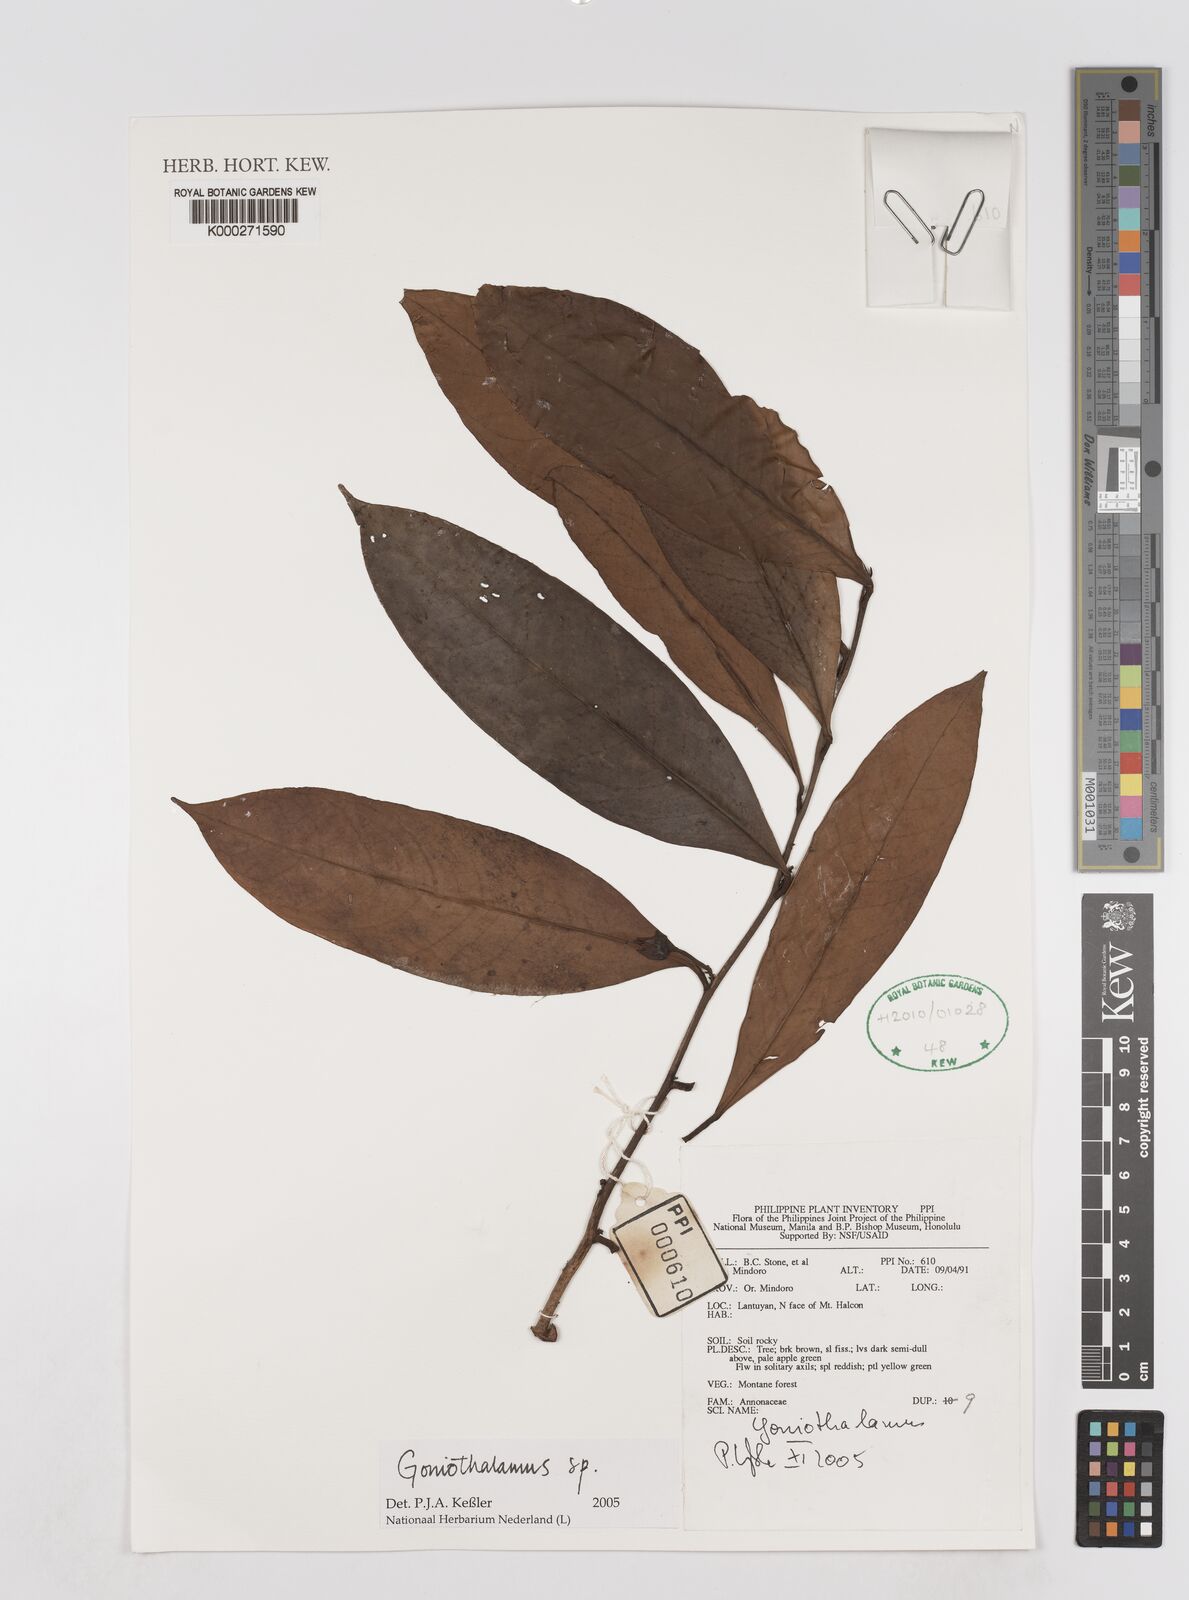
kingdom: Plantae
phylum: Tracheophyta
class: Magnoliopsida
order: Magnoliales
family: Annonaceae
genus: Goniothalamus
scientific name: Goniothalamus
